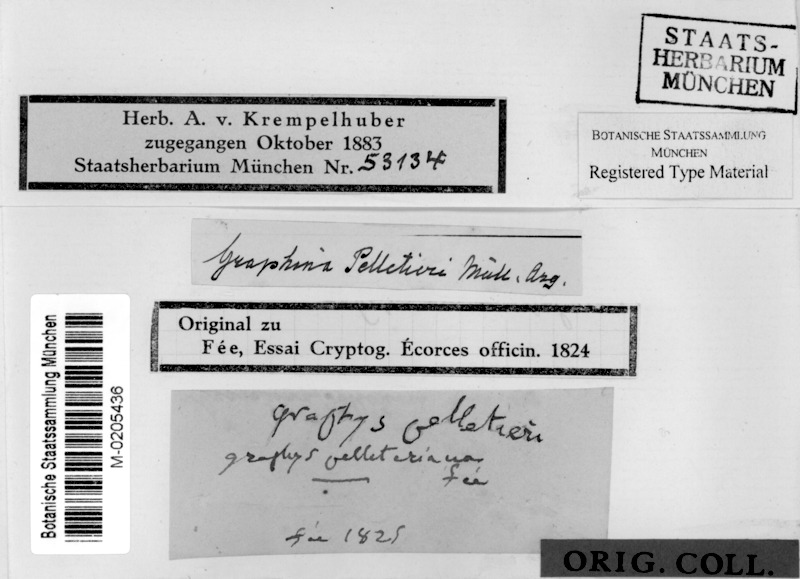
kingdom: Fungi
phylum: Ascomycota
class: Lecanoromycetes
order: Ostropales
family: Graphidaceae
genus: Graphina
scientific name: Graphina
